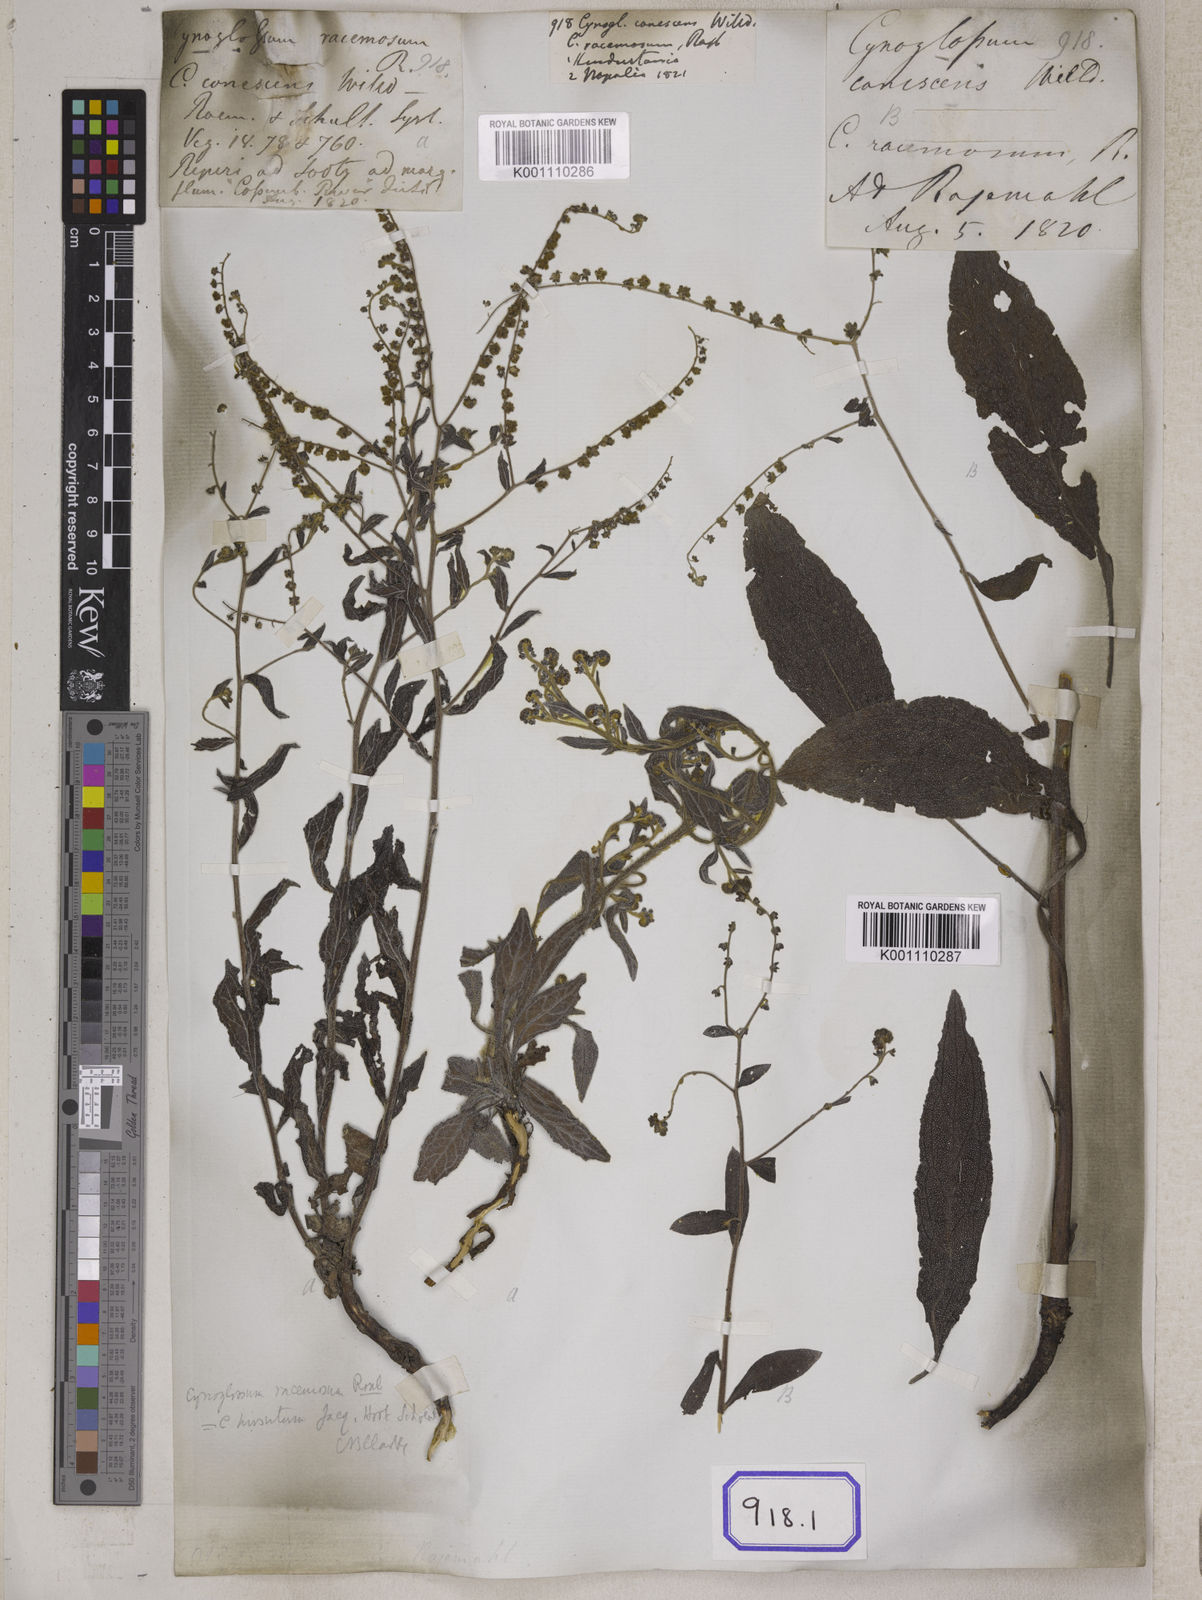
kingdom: Plantae
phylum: Tracheophyta
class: Magnoliopsida
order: Boraginales
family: Boraginaceae
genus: Paracynoglossum
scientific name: Paracynoglossum lanceolatum
